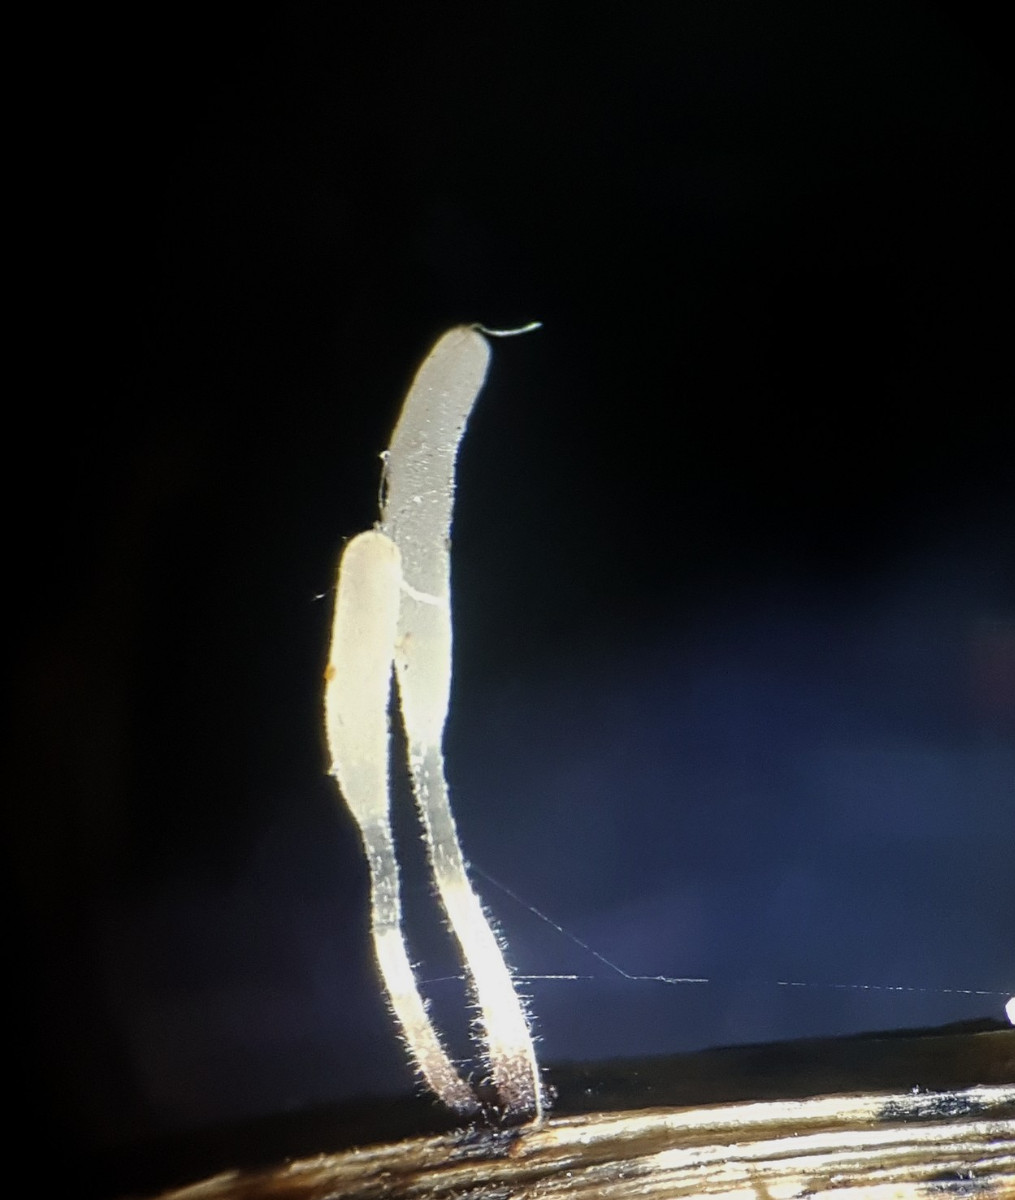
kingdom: Fungi
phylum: Basidiomycota
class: Agaricomycetes
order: Agaricales
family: Typhulaceae
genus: Typhula
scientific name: Typhula spathulata
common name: aske-trådkølle
